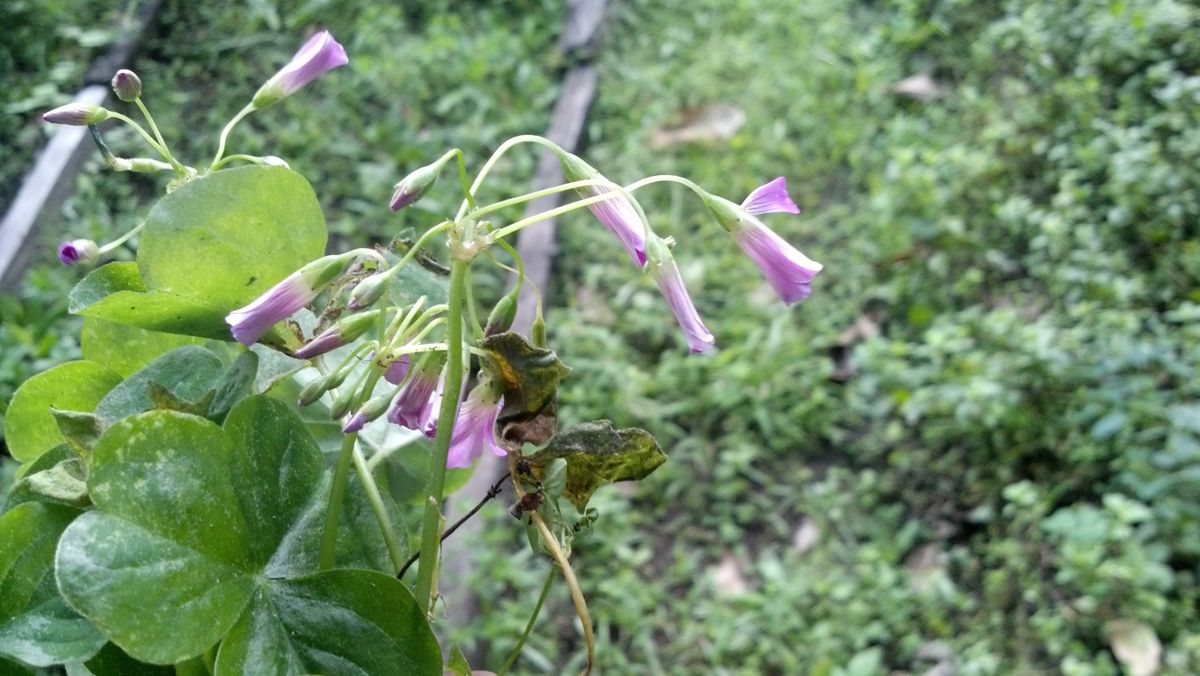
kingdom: Plantae
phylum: Tracheophyta
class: Magnoliopsida
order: Oxalidales
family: Oxalidaceae
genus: Oxalis
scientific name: Oxalis debilis
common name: Large-flowered pink-sorrel
